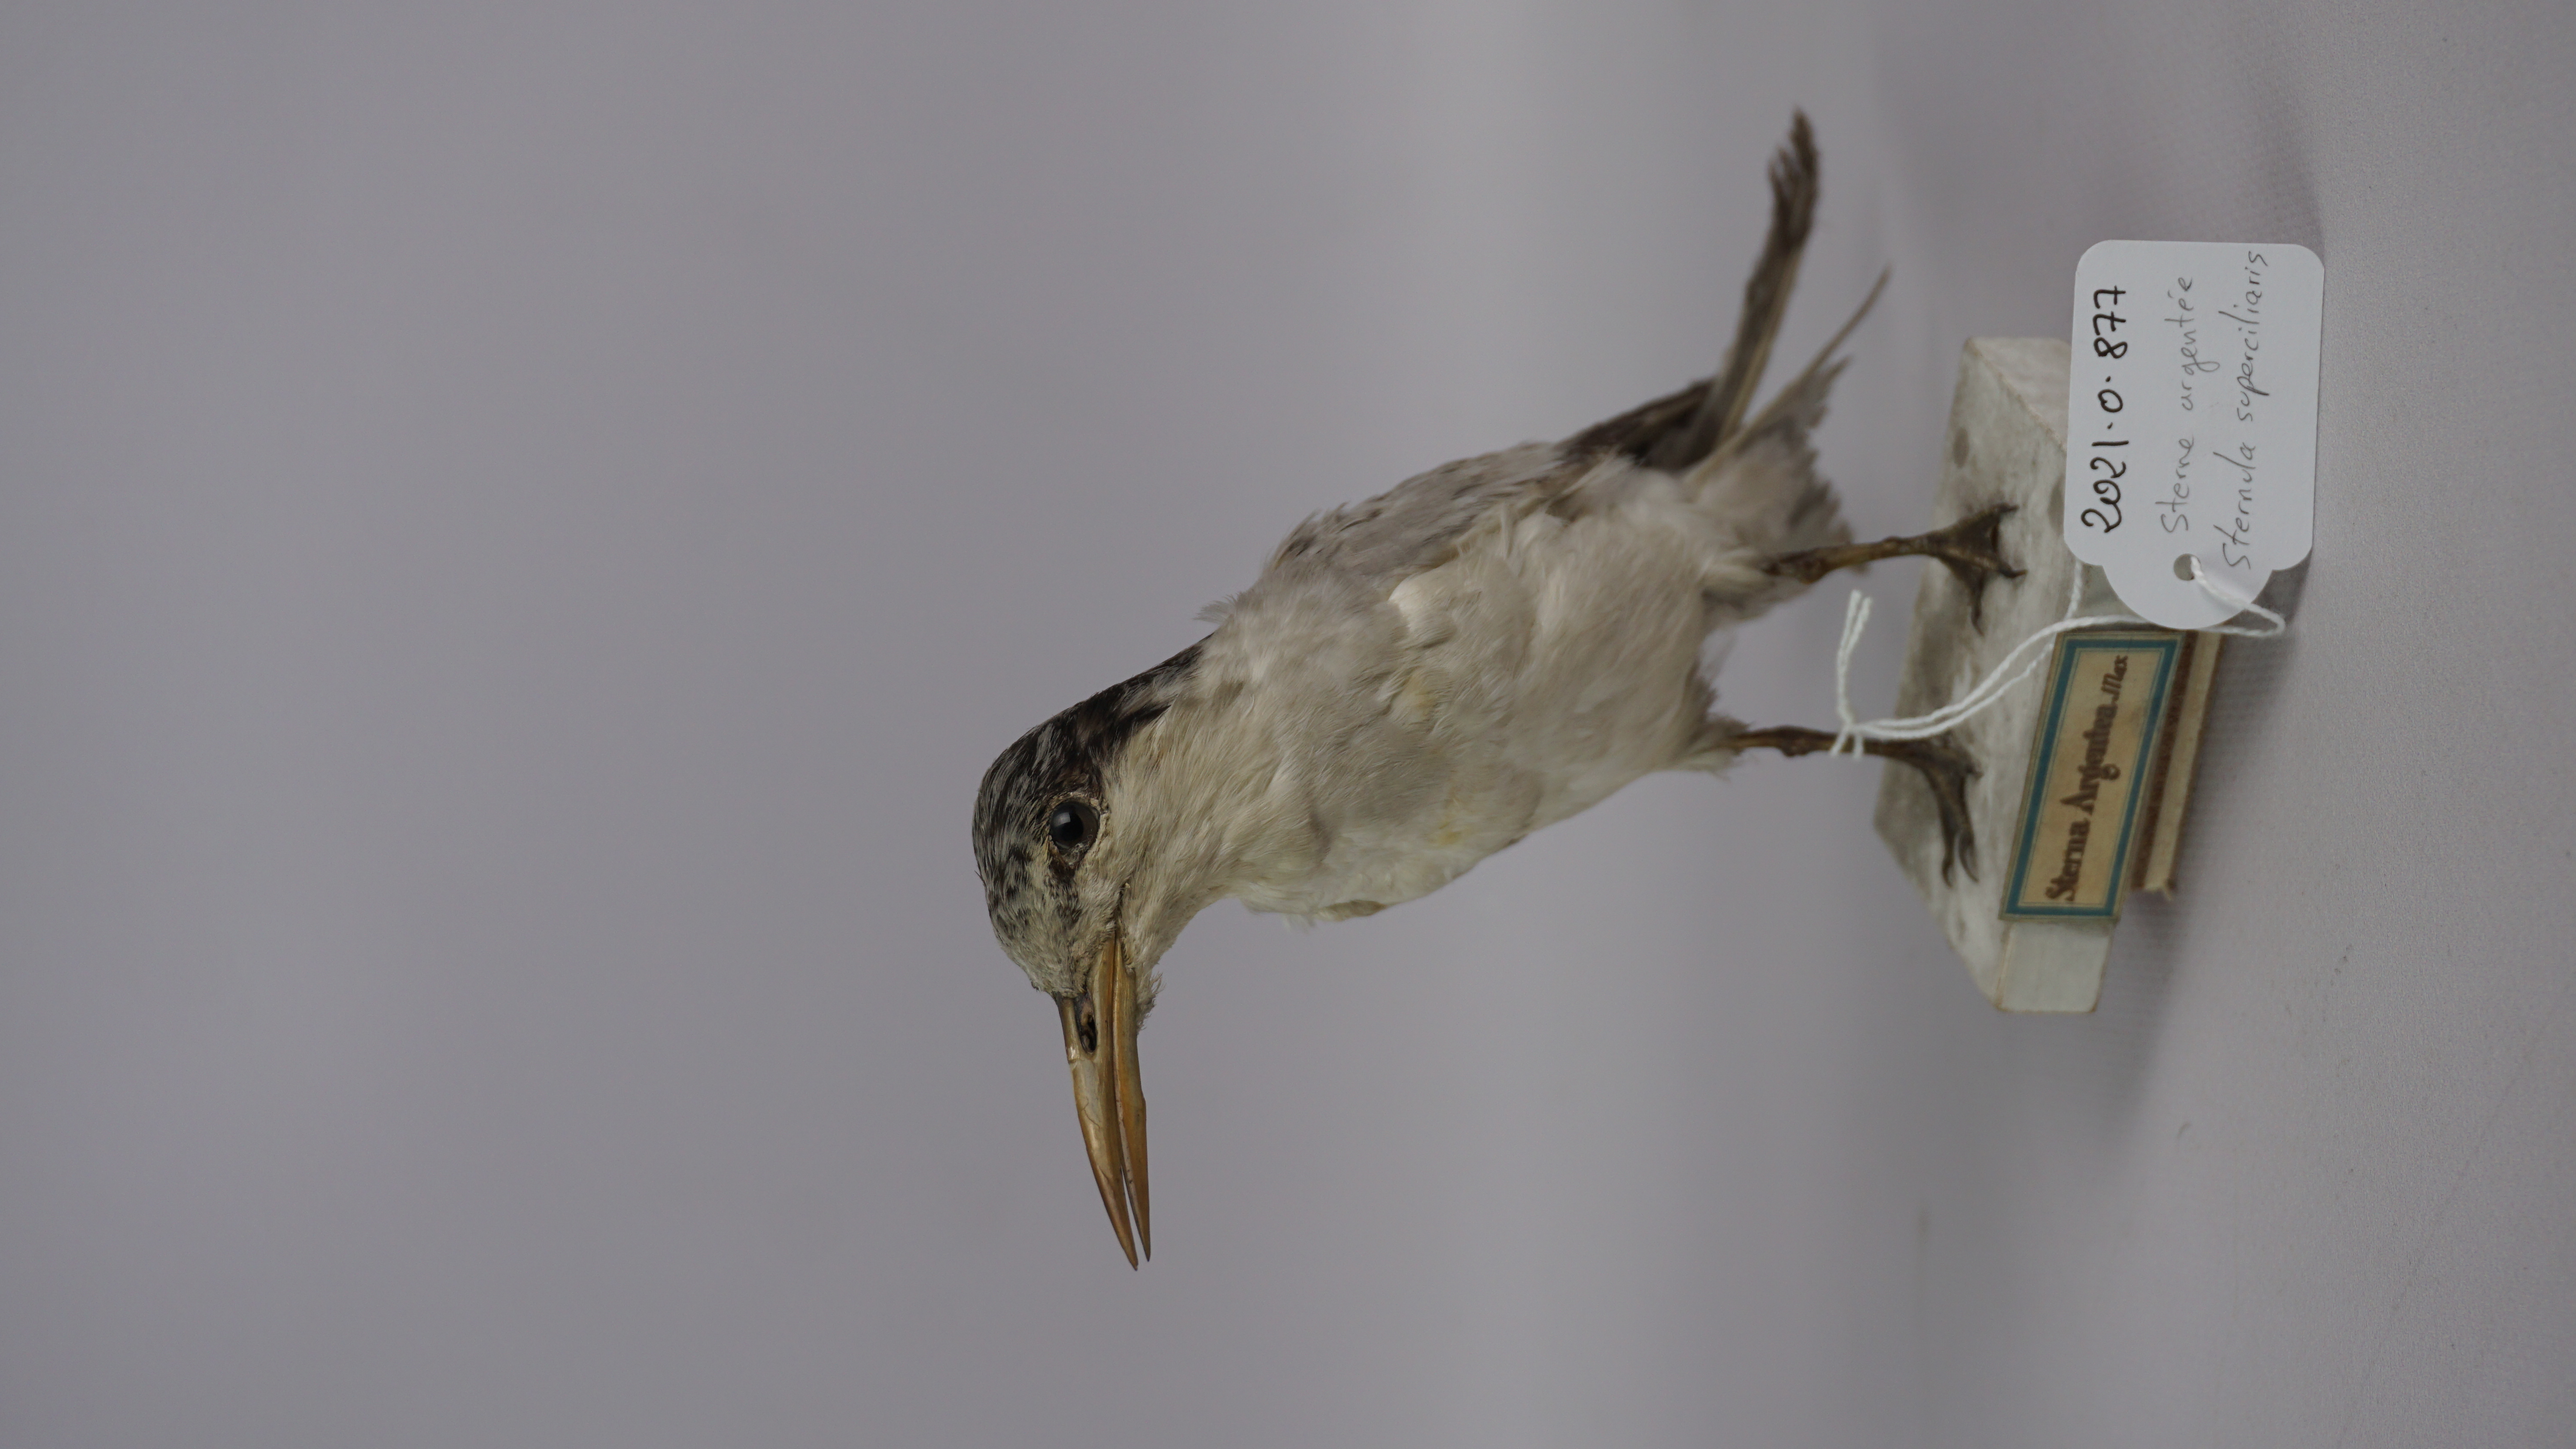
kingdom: Animalia
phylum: Chordata
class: Aves
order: Charadriiformes
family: Laridae
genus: Sternula
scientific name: Sternula superciliaris
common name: Yellow-billed tern
